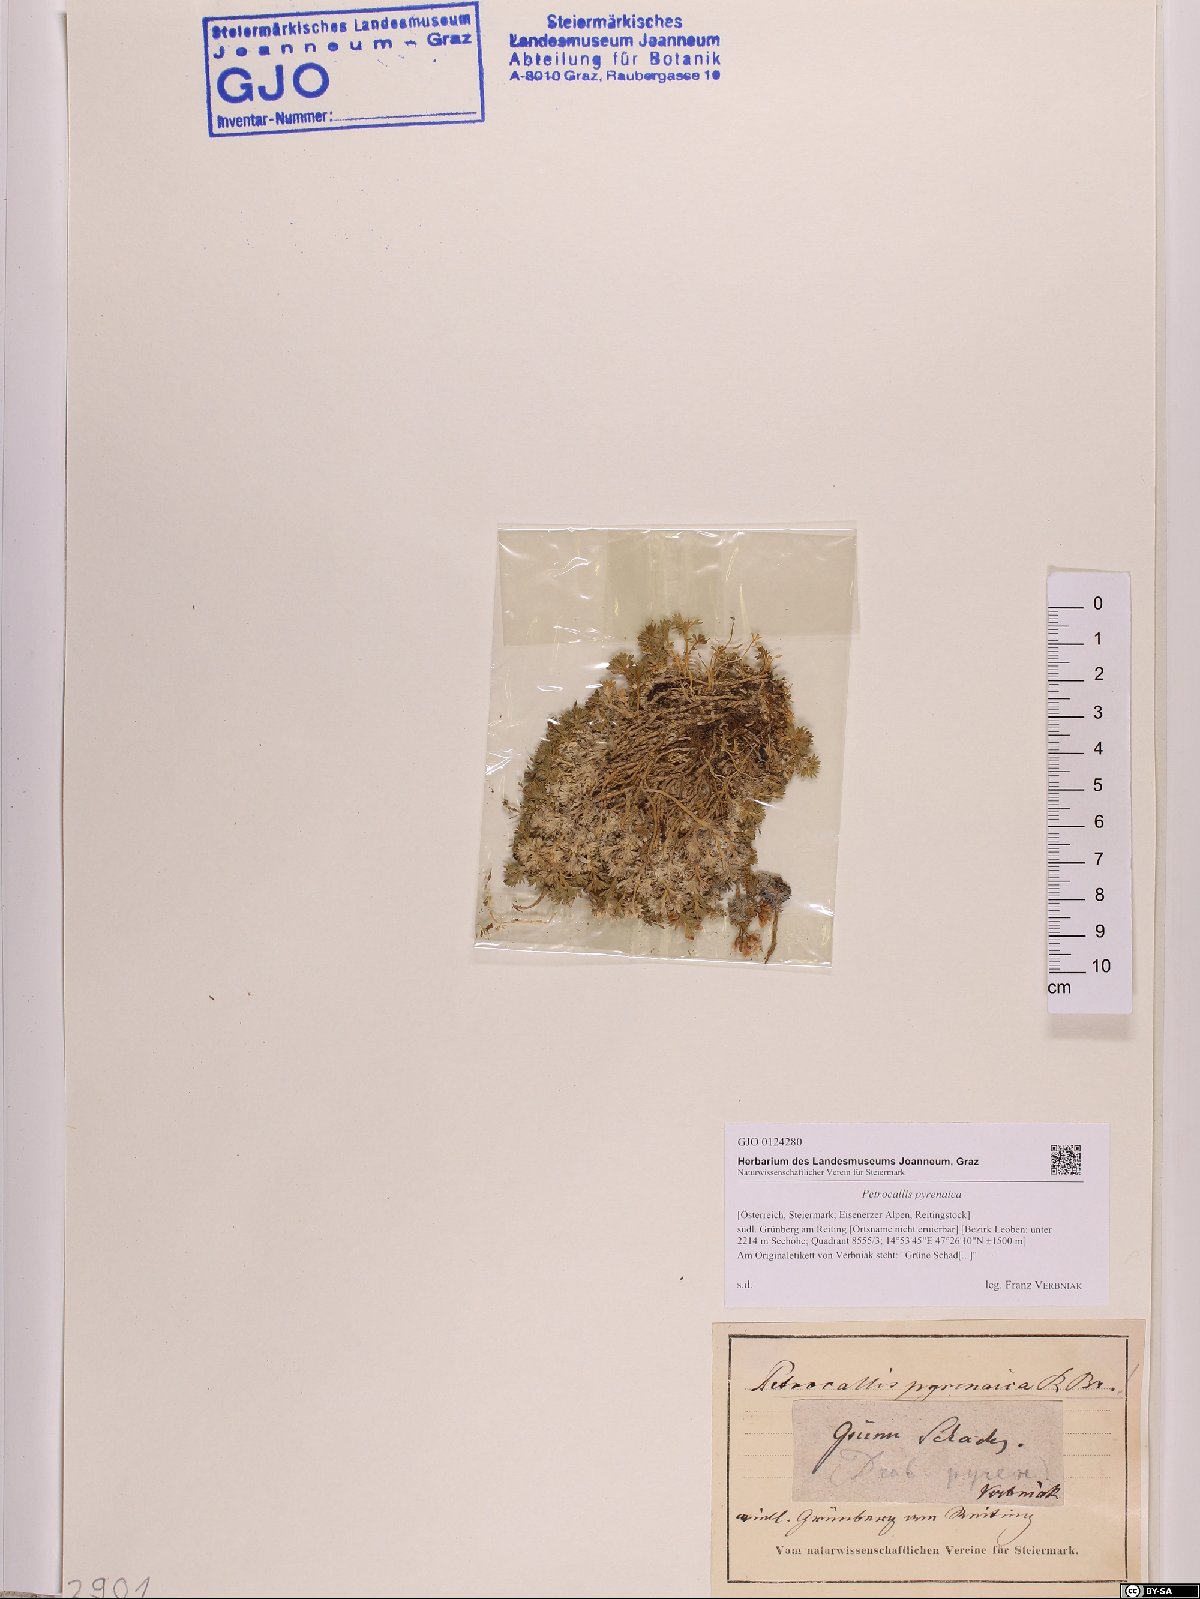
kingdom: Plantae
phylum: Tracheophyta
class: Magnoliopsida
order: Brassicales
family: Brassicaceae
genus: Petrocallis
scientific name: Petrocallis pyrenaica
